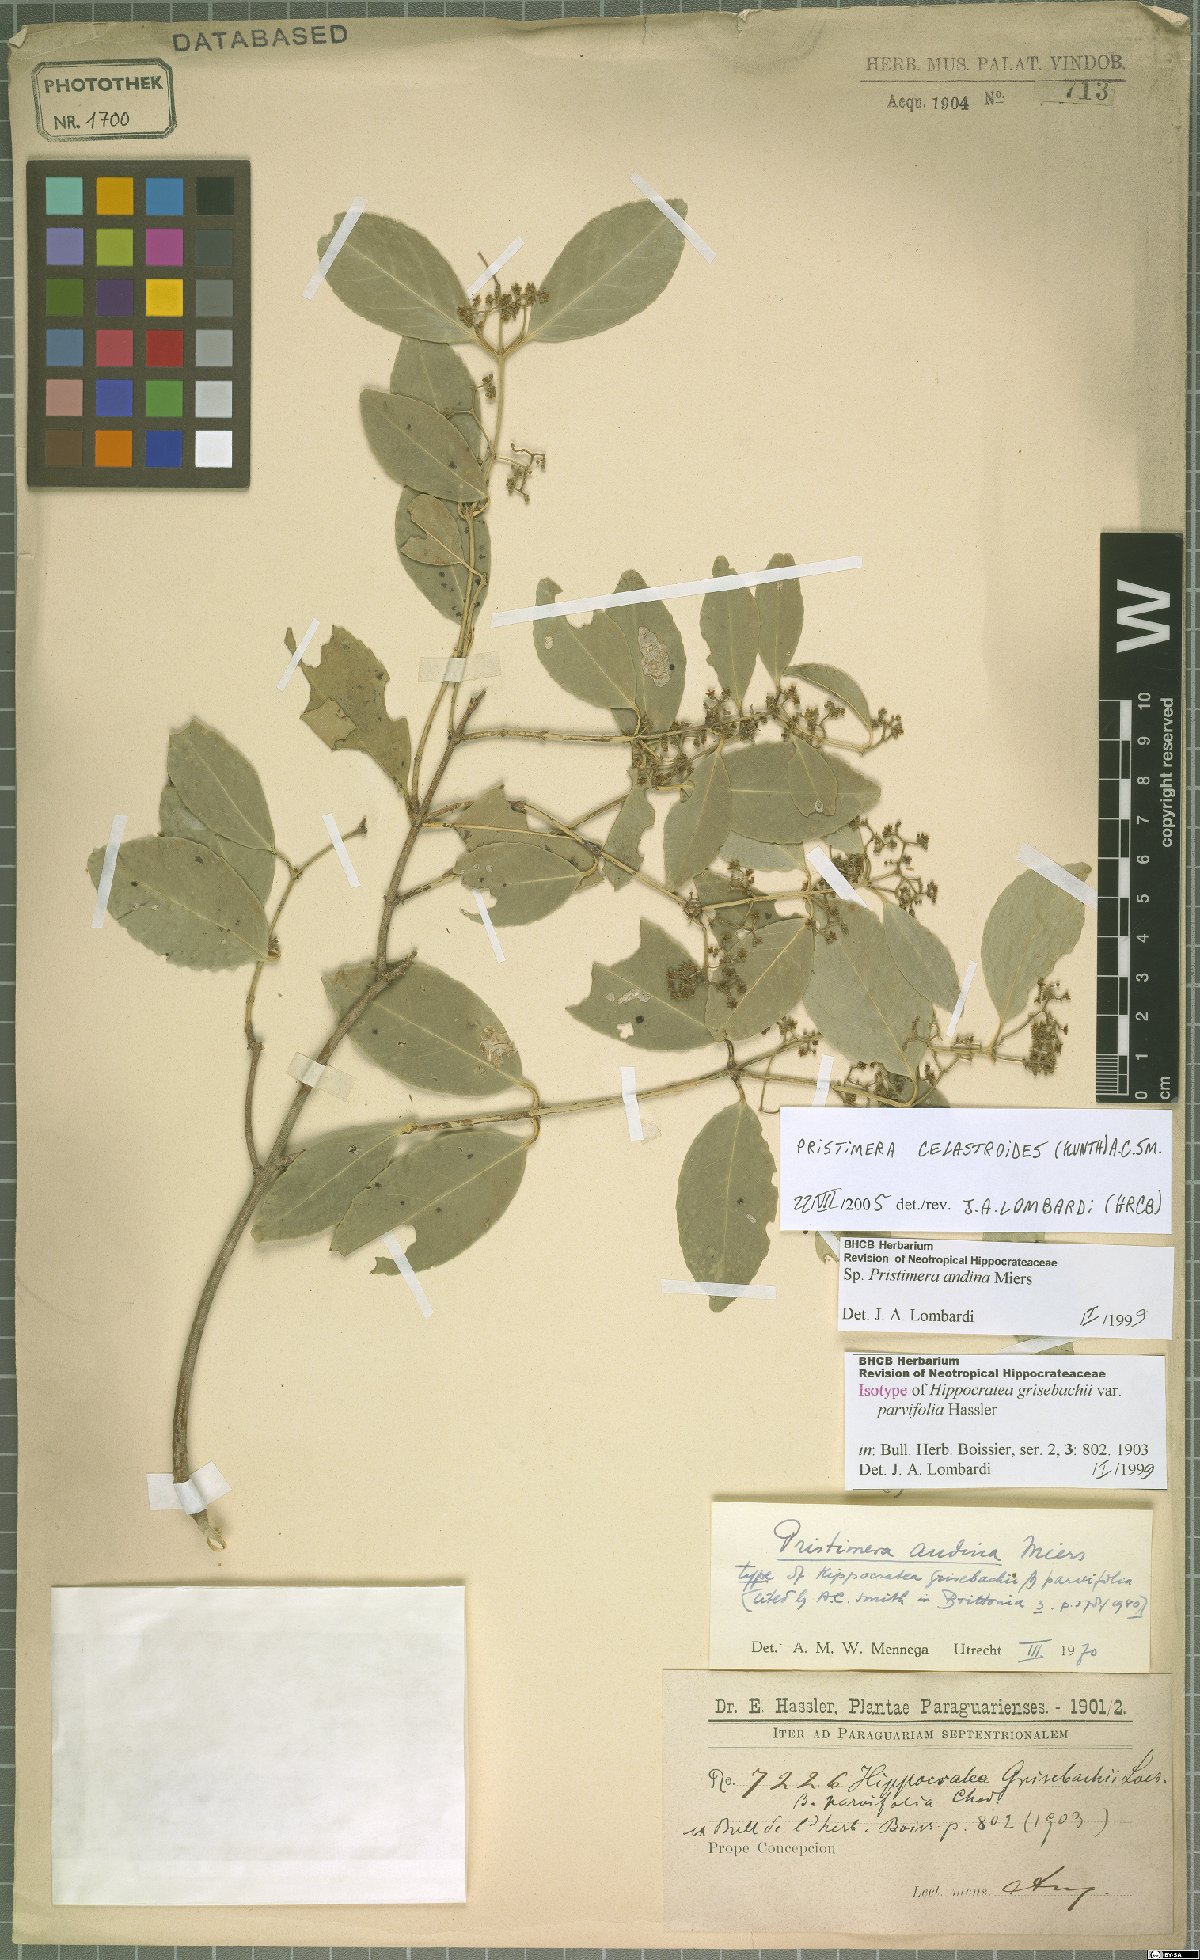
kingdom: Plantae
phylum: Tracheophyta
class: Magnoliopsida
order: Celastrales
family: Celastraceae
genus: Pristimera
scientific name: Pristimera celastroides
